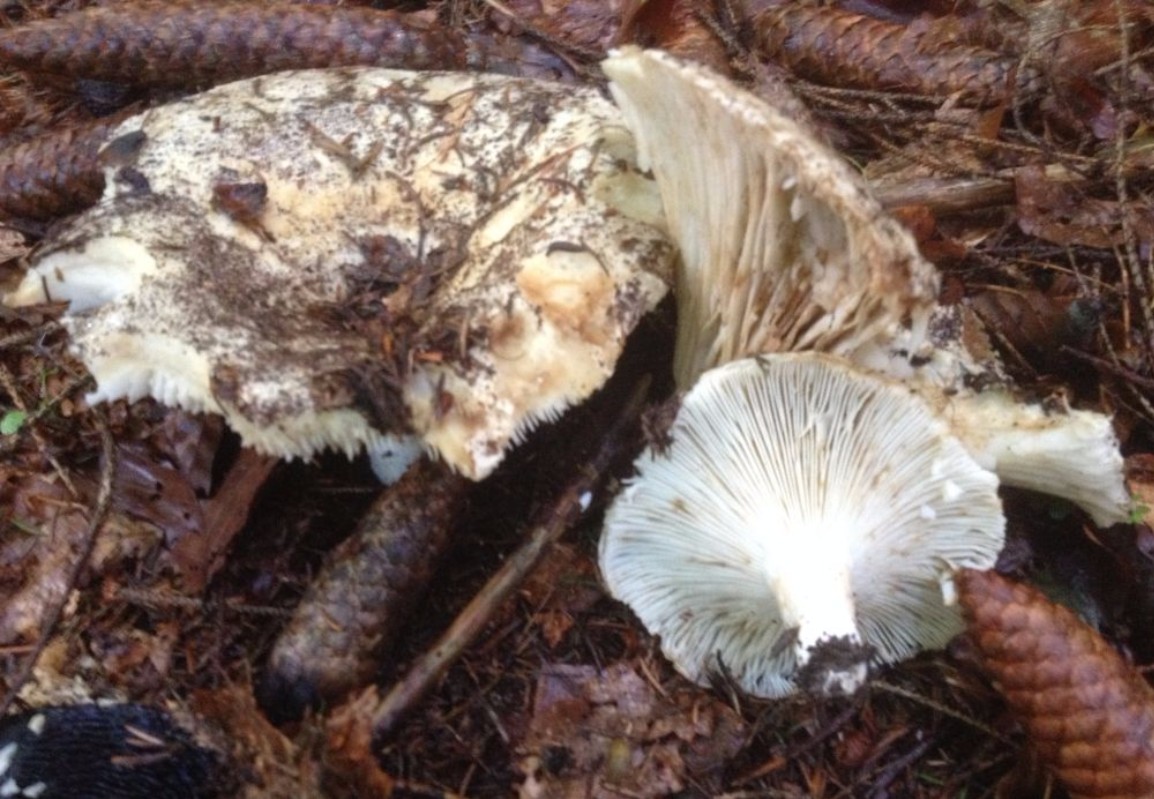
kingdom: Fungi
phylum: Basidiomycota
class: Agaricomycetes
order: Russulales
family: Russulaceae
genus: Russula
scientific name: Russula
